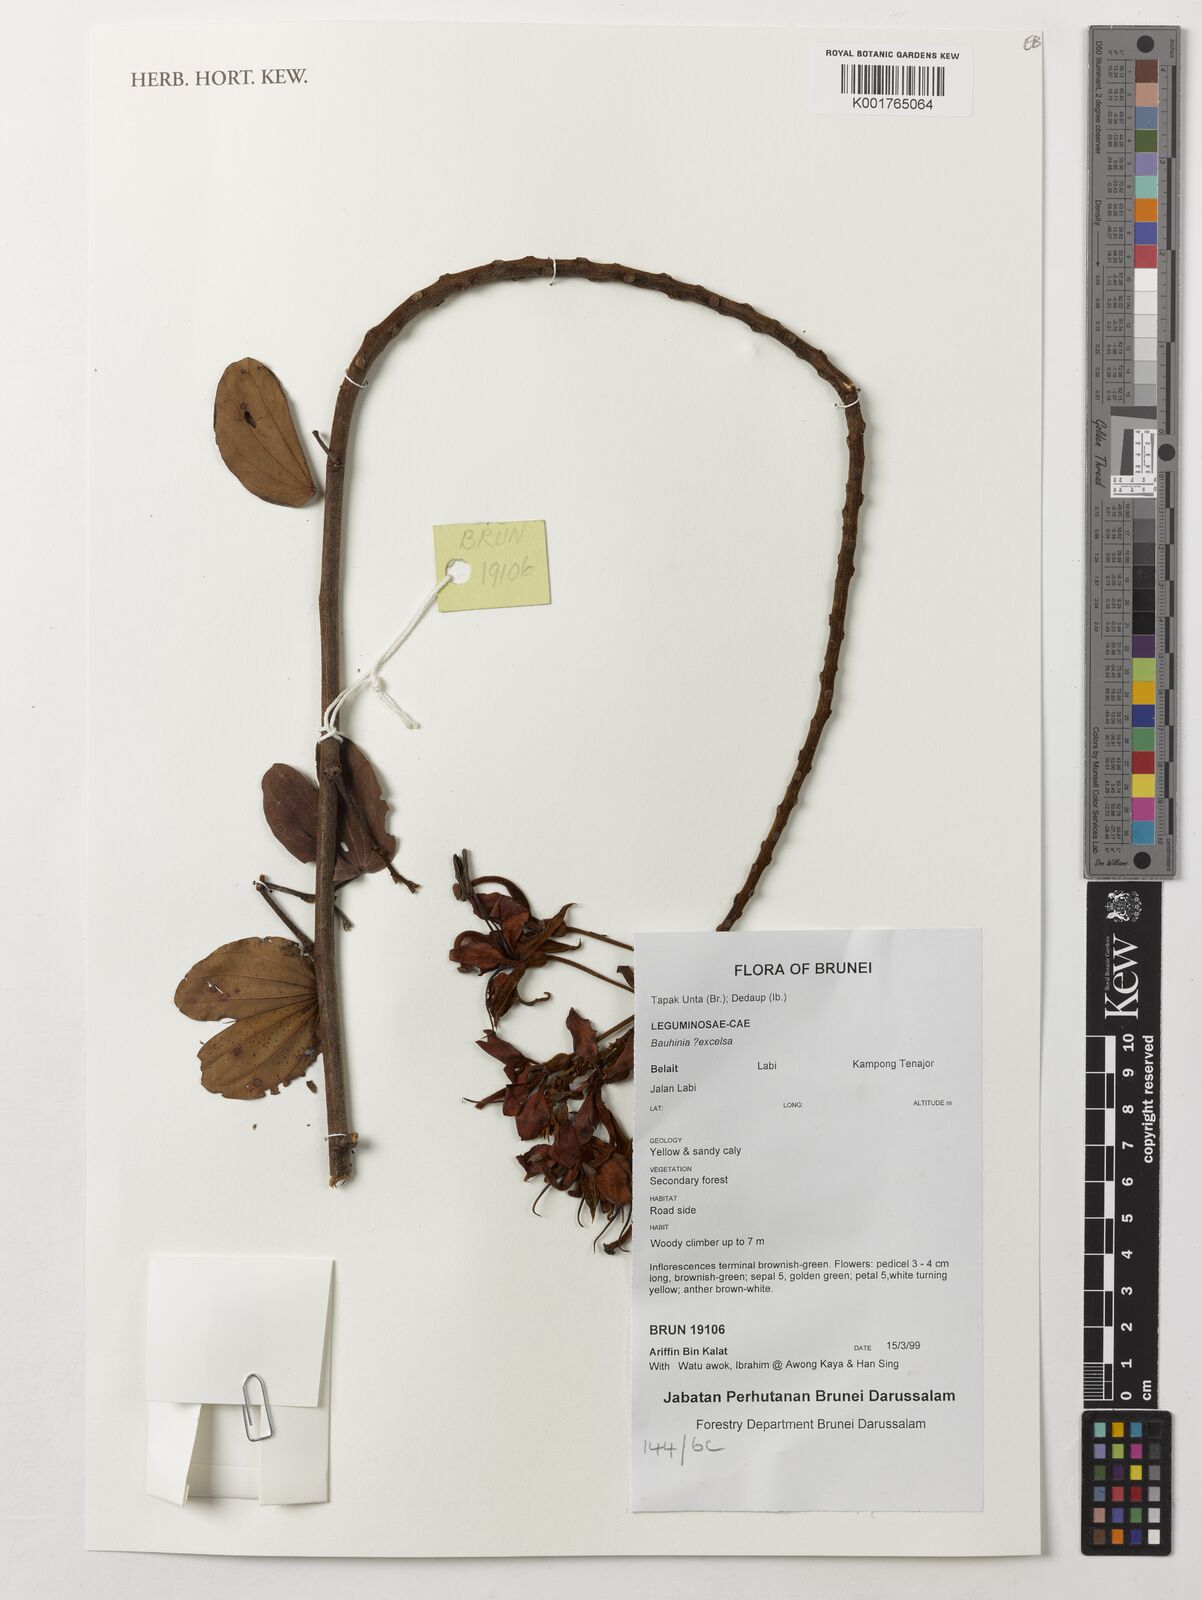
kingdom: Plantae
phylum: Tracheophyta
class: Magnoliopsida
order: Fabales
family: Fabaceae
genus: Bauhinia
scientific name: Bauhinia
